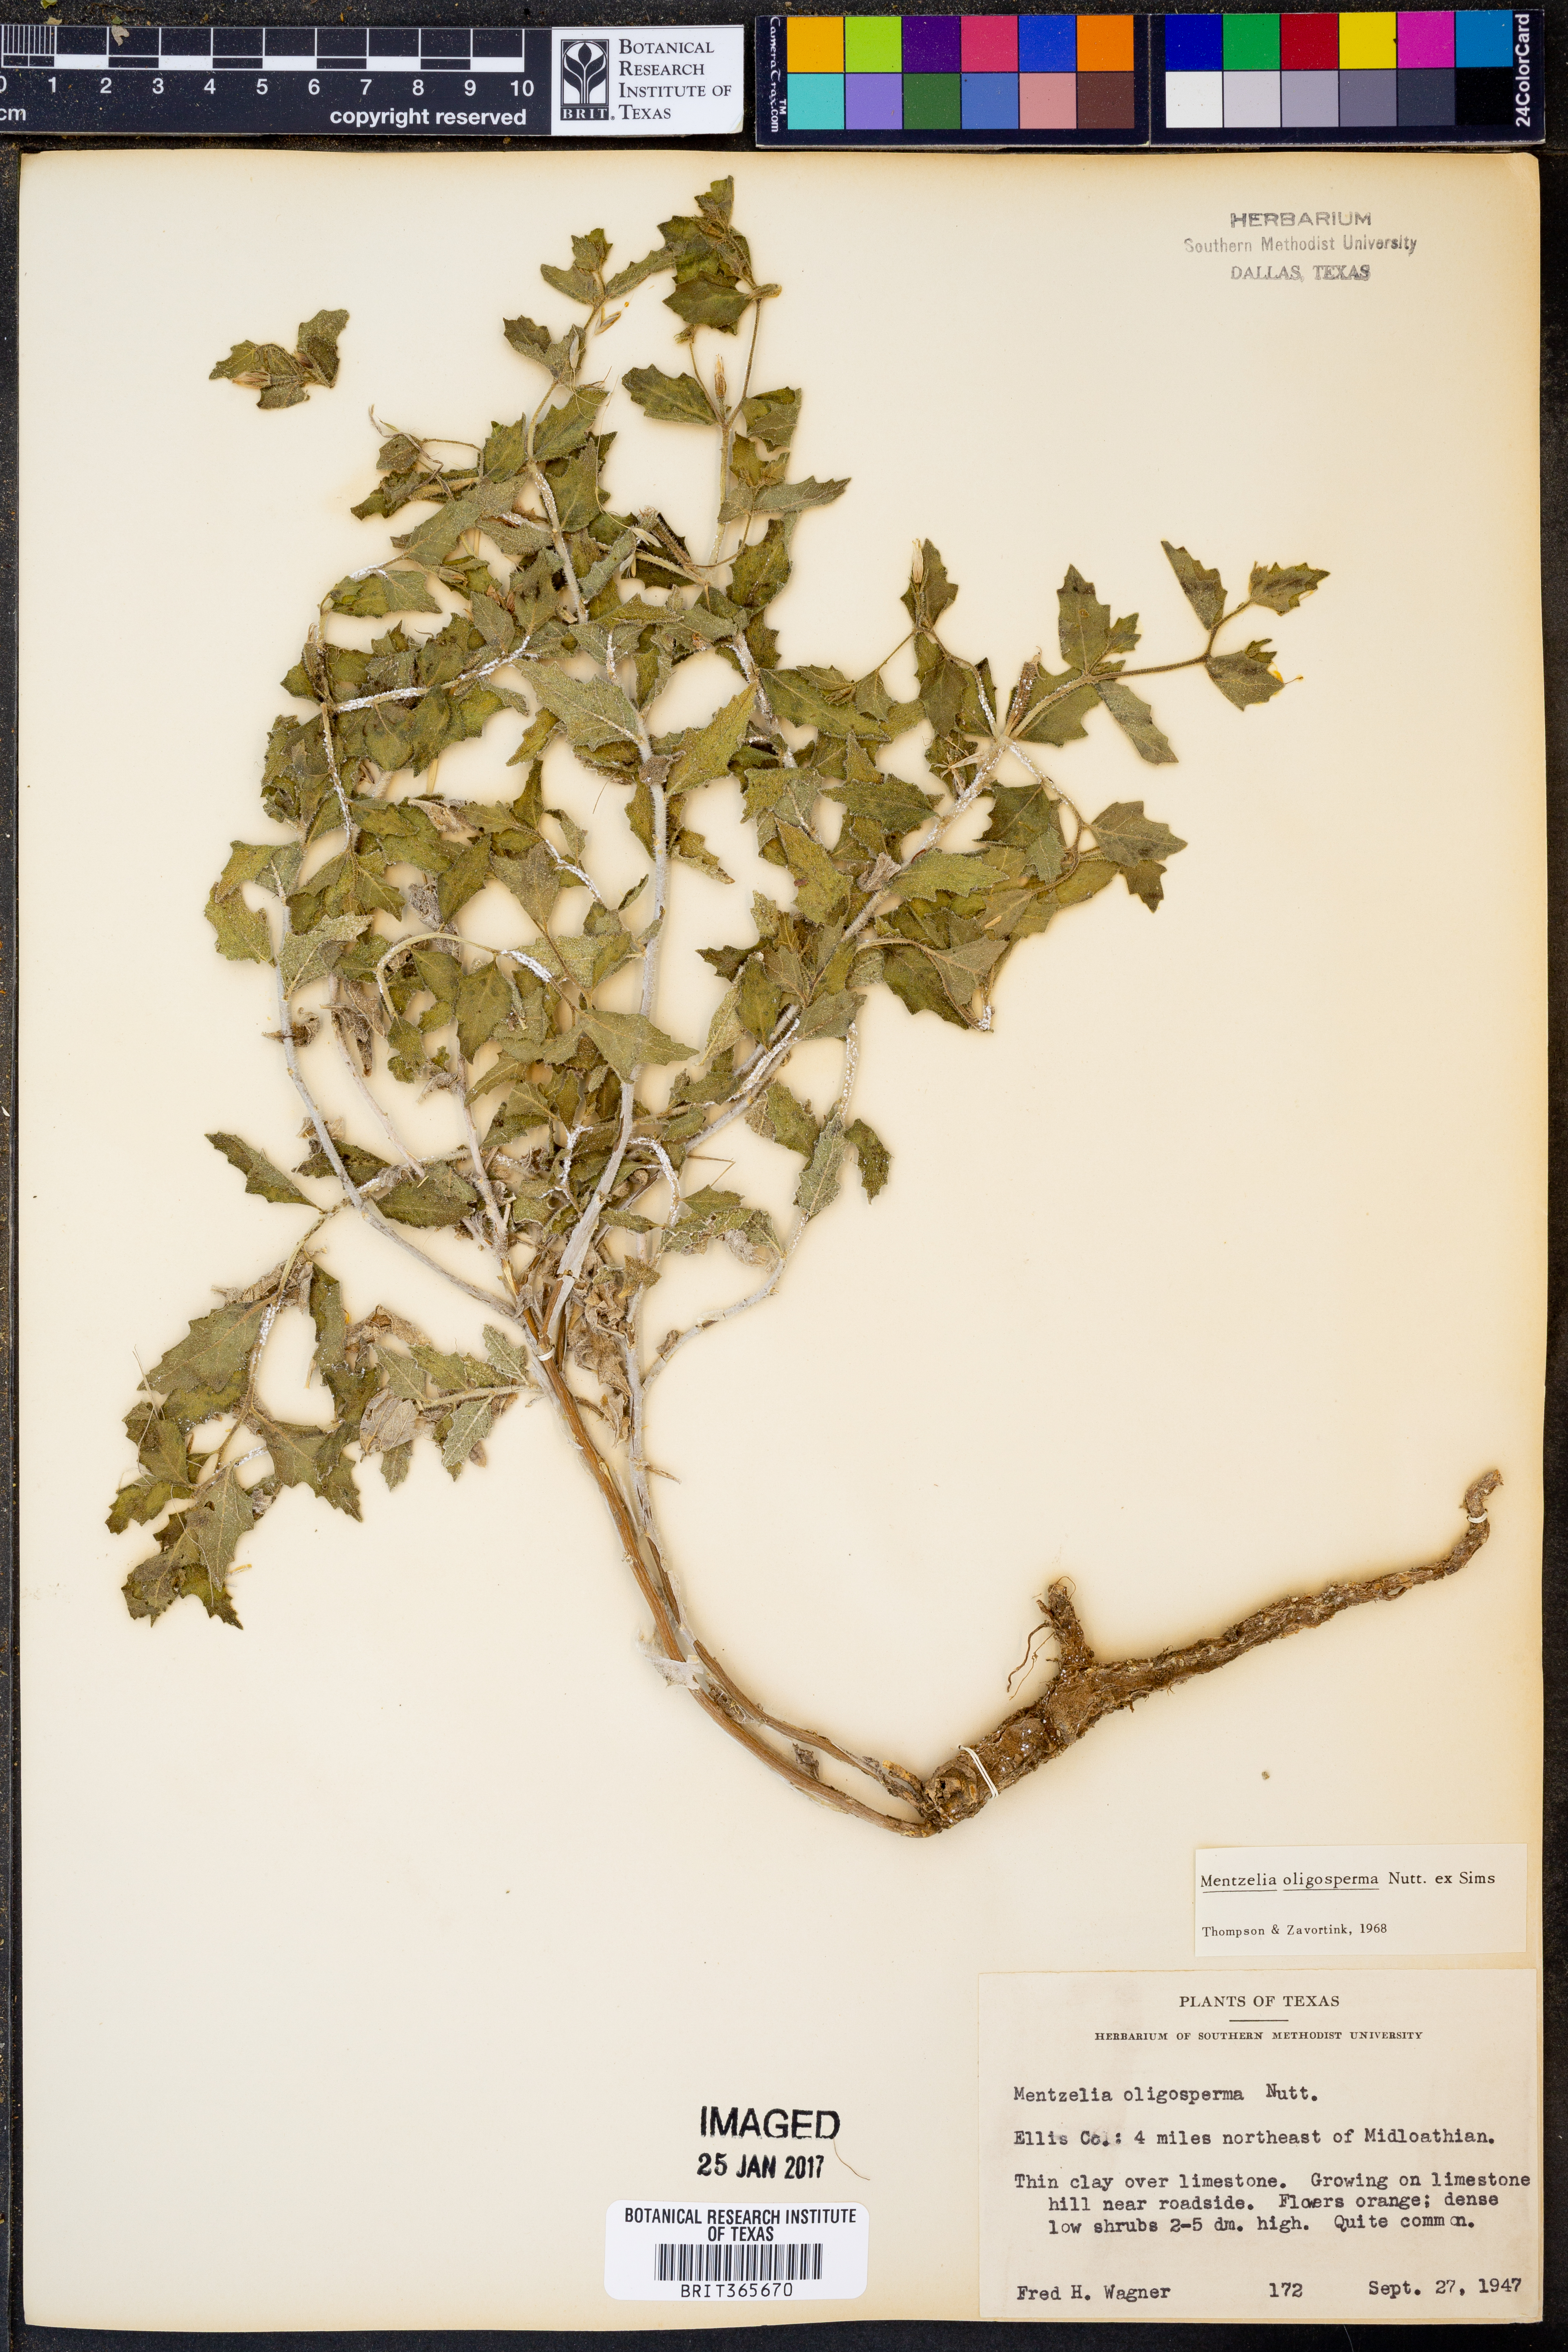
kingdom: Plantae
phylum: Tracheophyta
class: Magnoliopsida
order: Cornales
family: Loasaceae
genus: Mentzelia
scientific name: Mentzelia oligosperma
